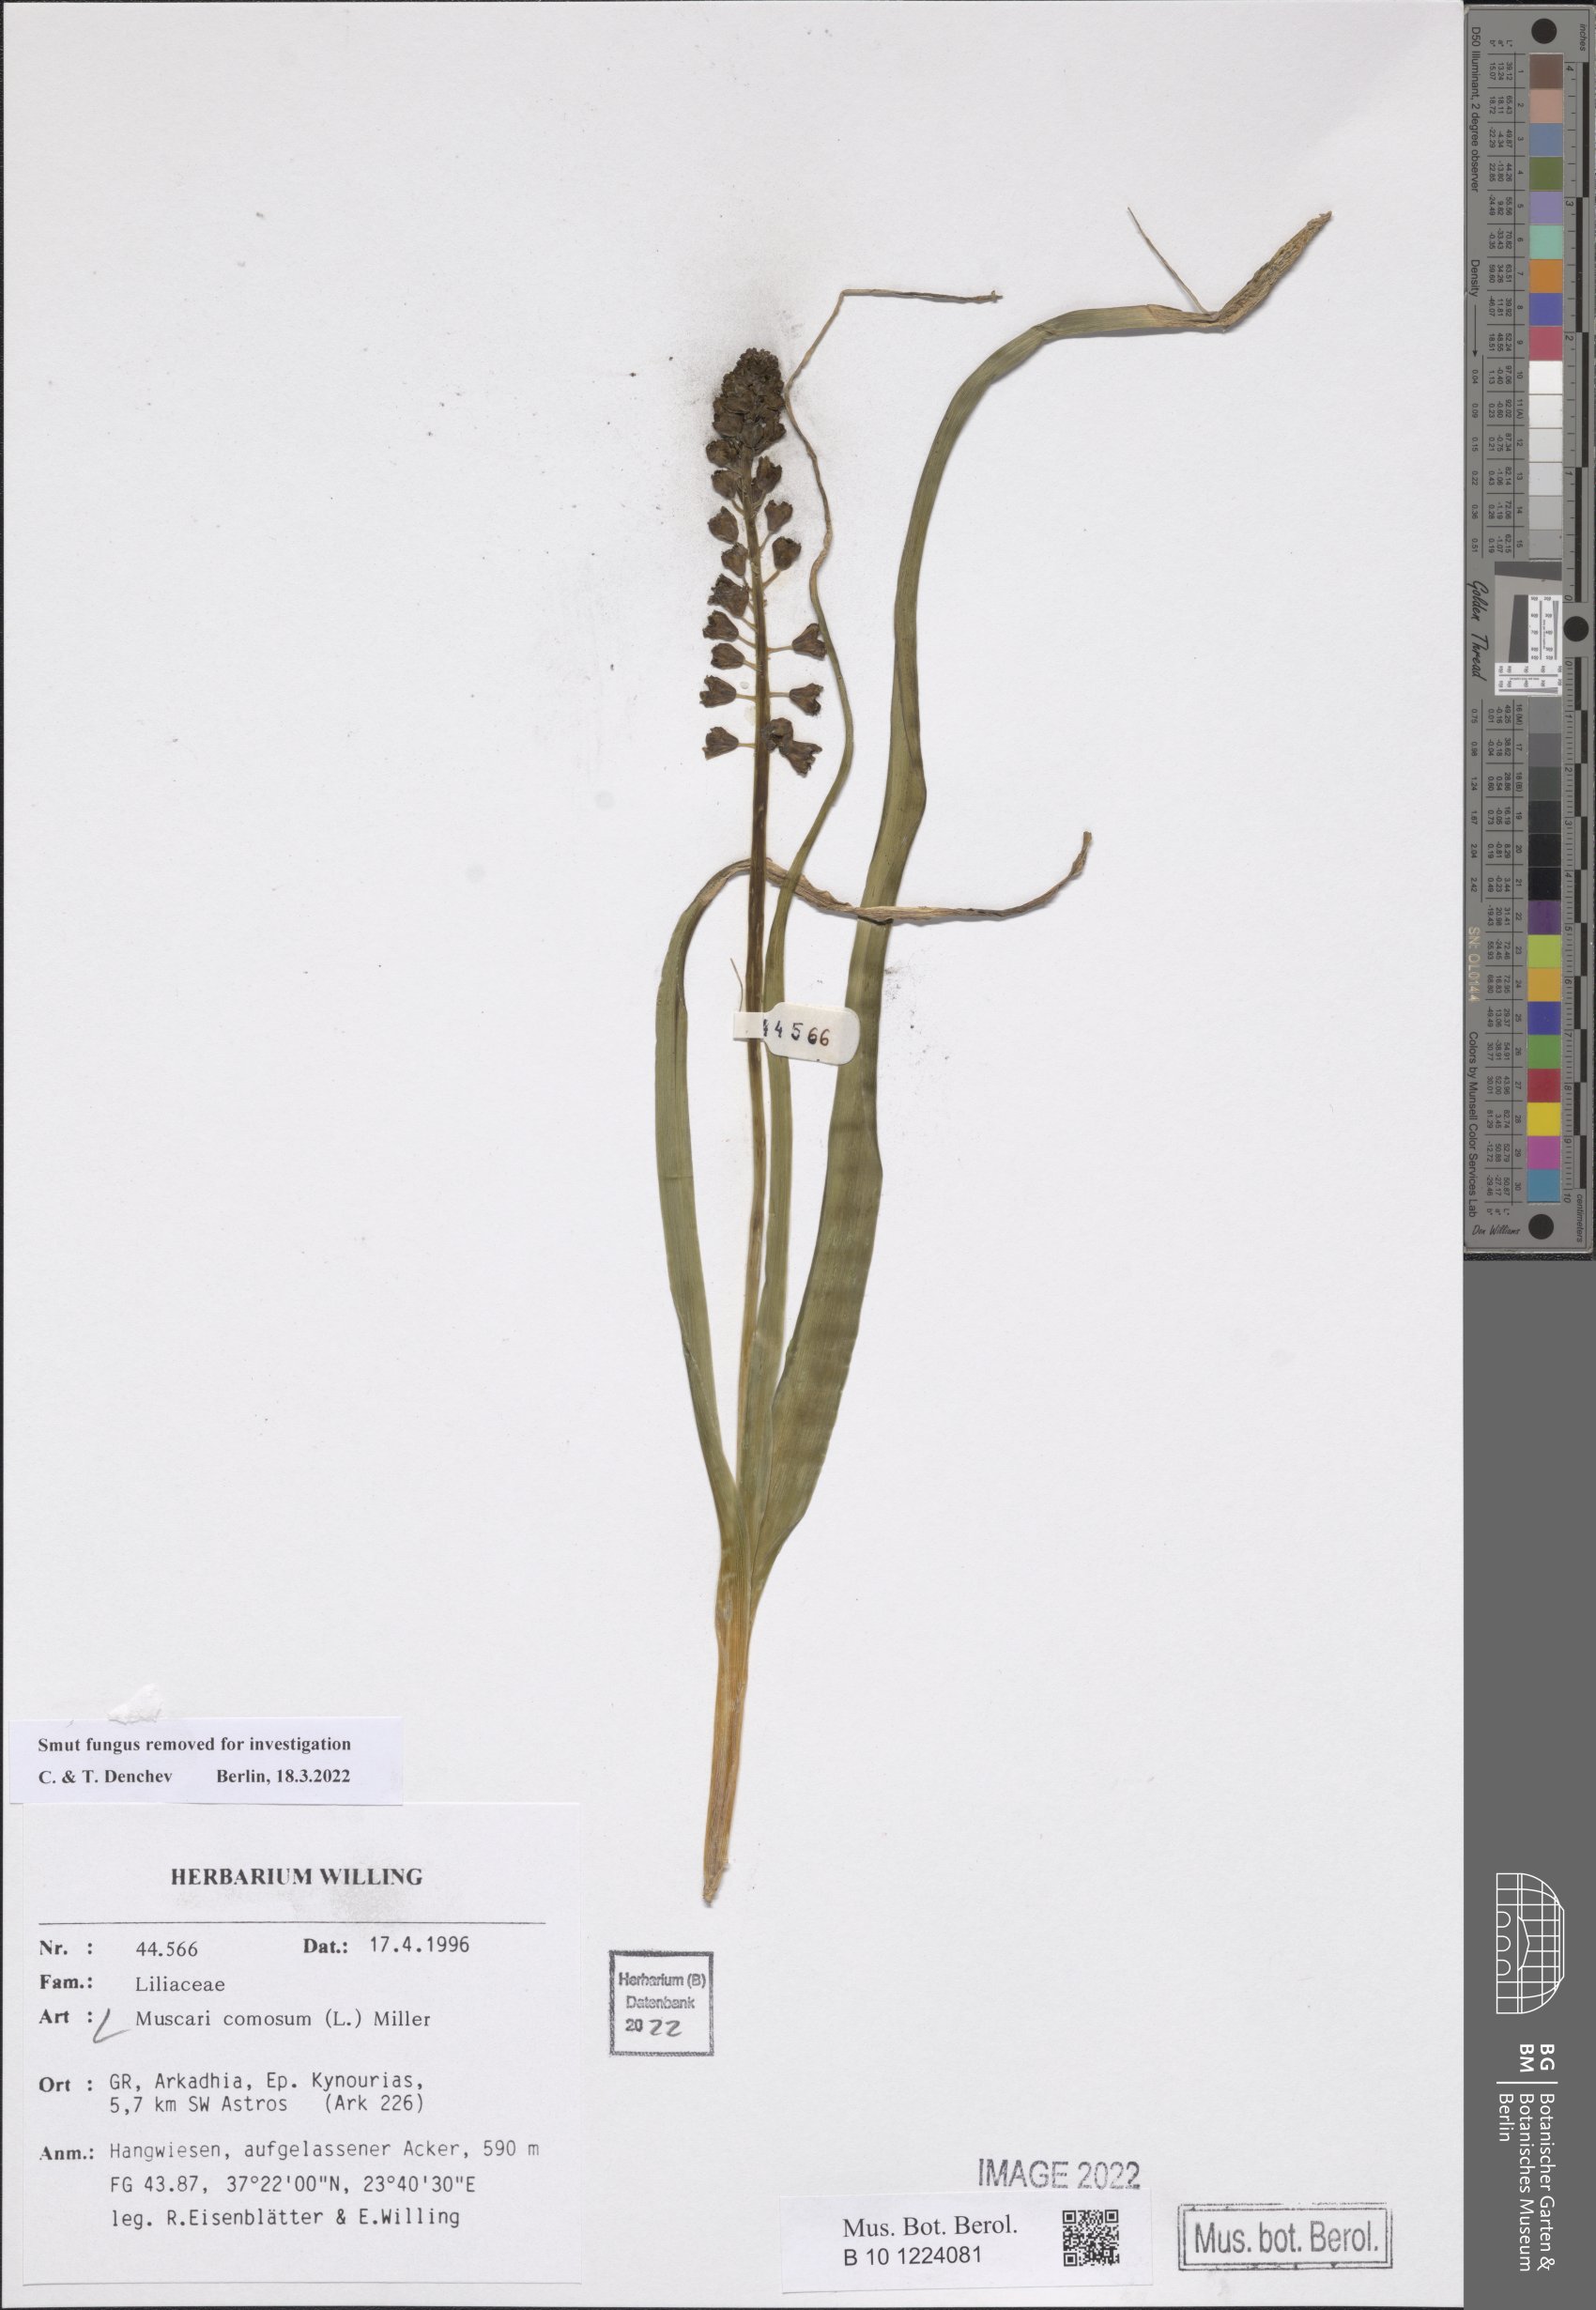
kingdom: Plantae
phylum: Tracheophyta
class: Liliopsida
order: Asparagales
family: Asparagaceae
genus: Muscari
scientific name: Muscari comosum
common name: Tassel hyacinth
